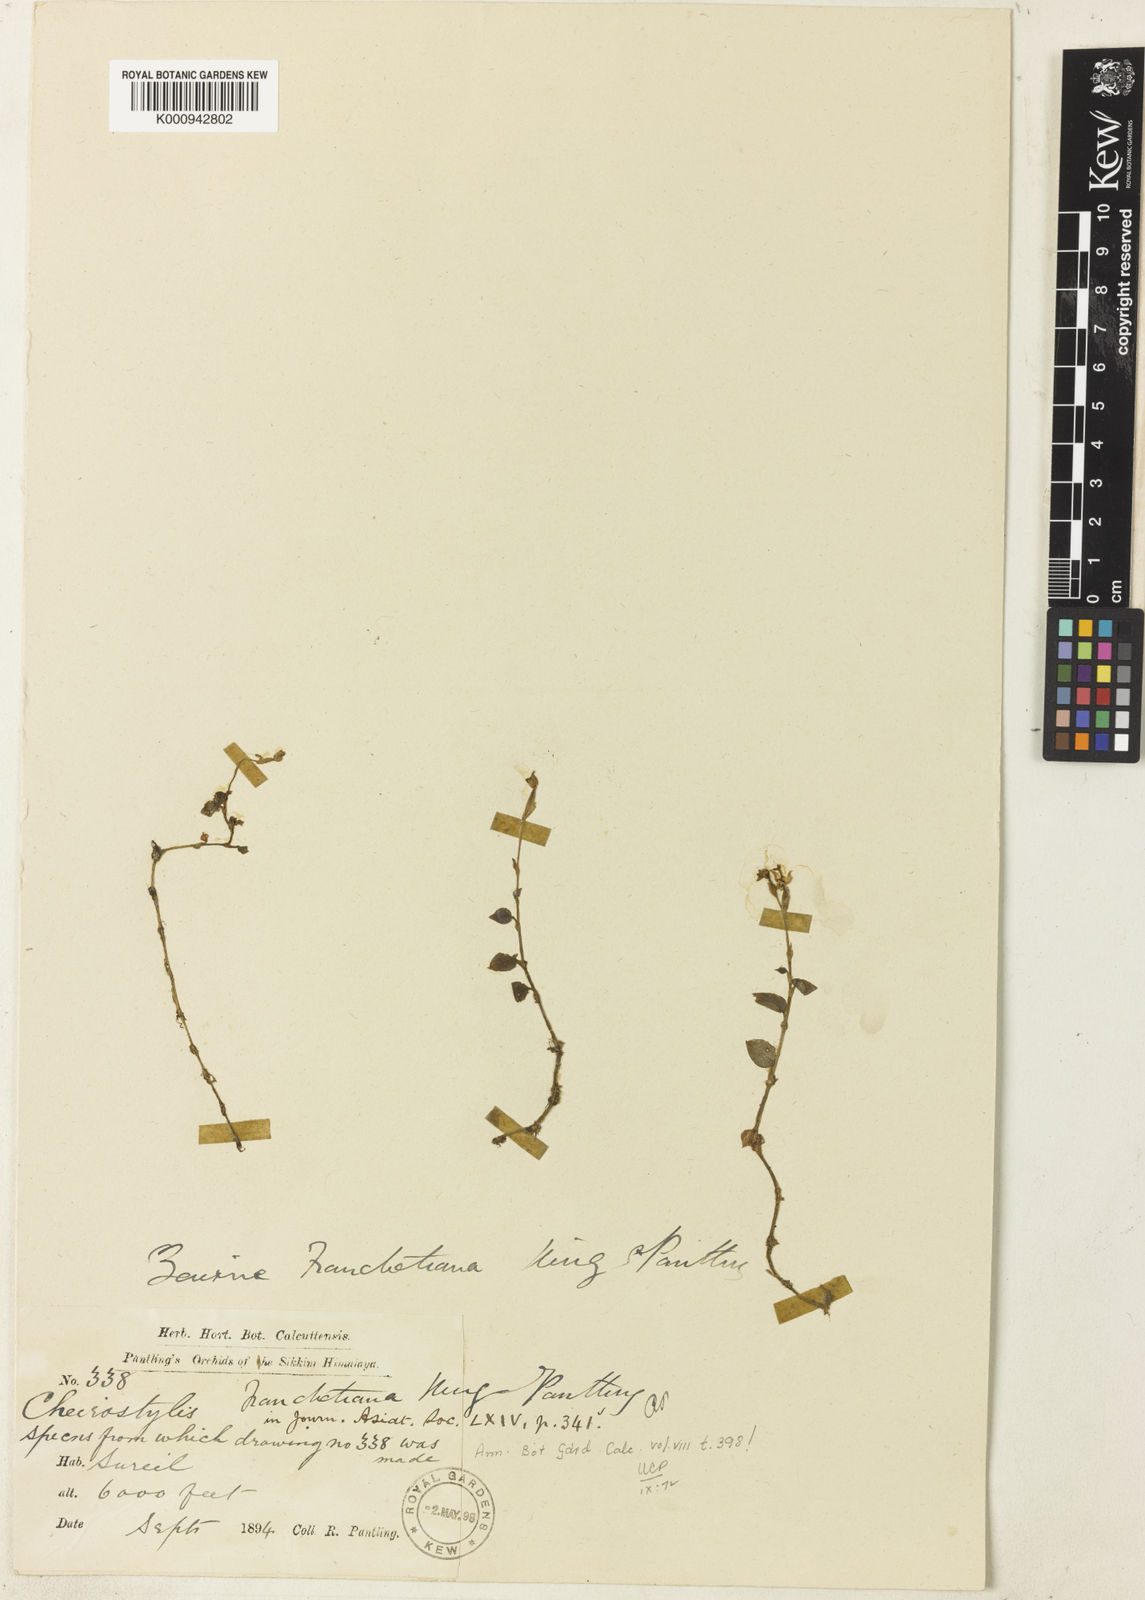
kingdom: Plantae
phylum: Tracheophyta
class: Liliopsida
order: Asparagales
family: Orchidaceae
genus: Odontochilus
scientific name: Odontochilus pumilus
